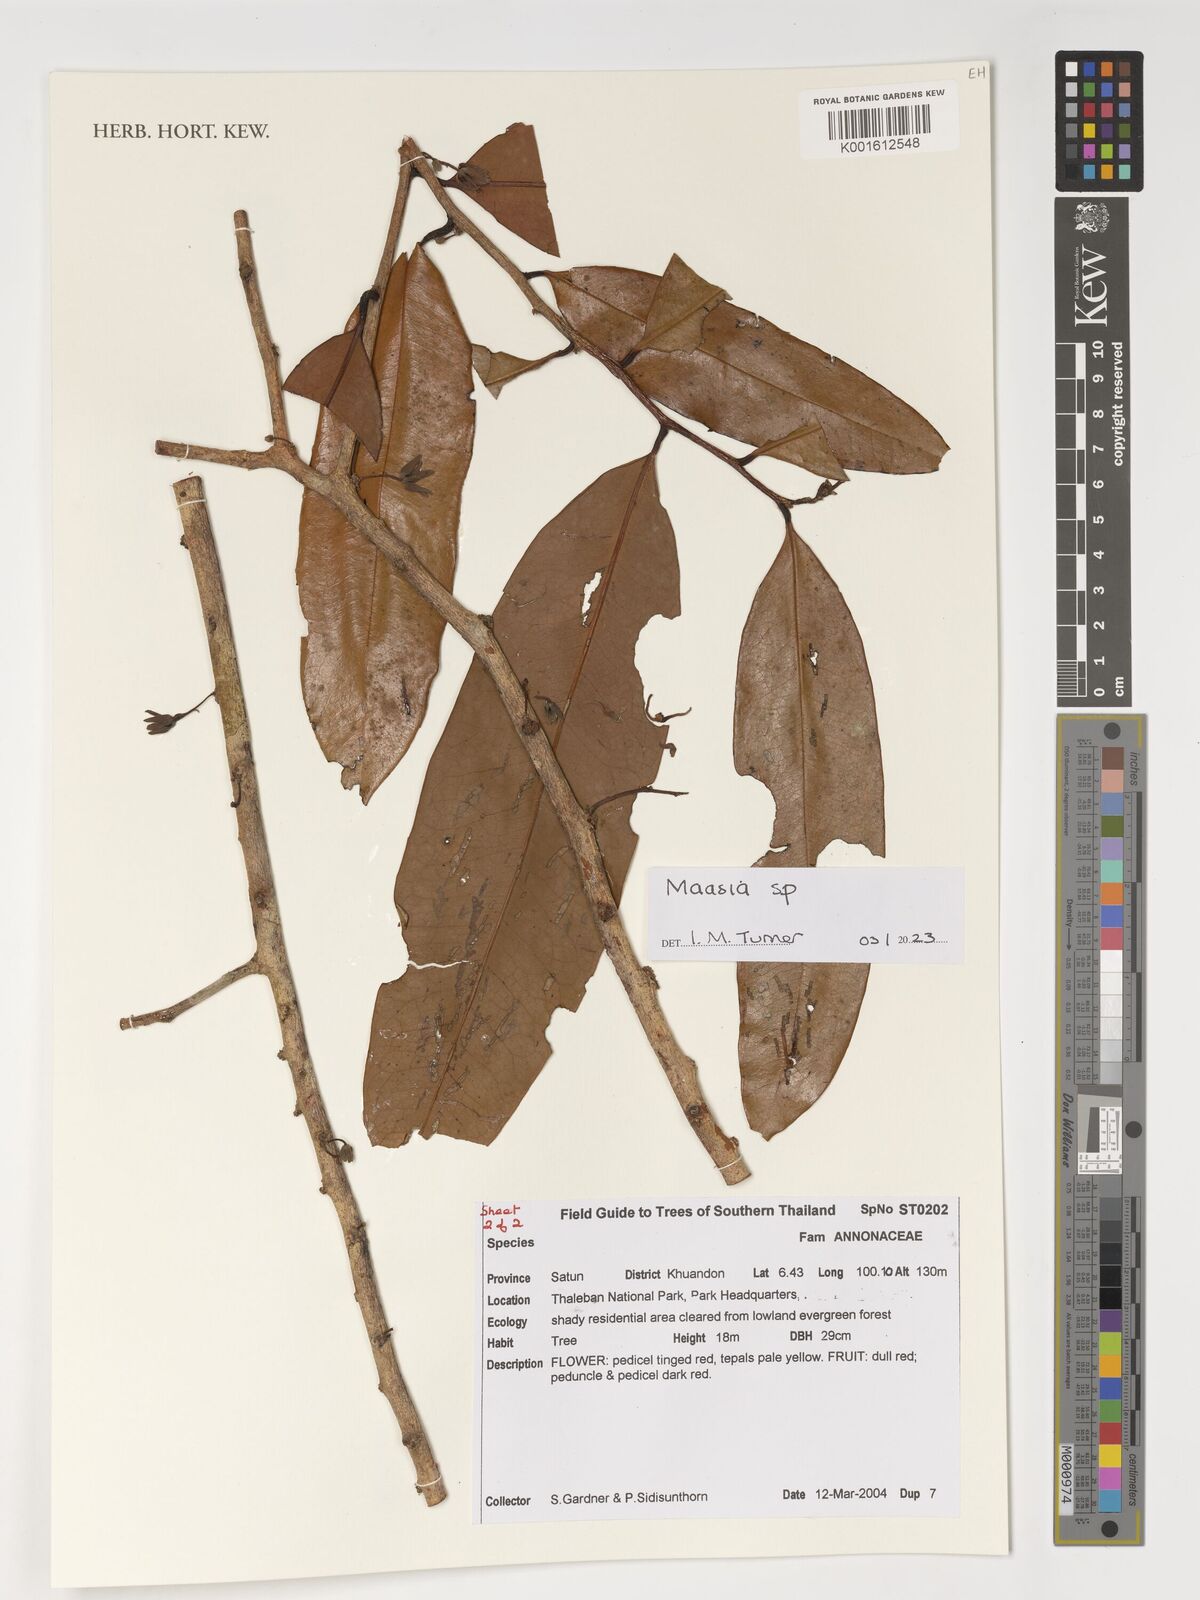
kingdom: Plantae
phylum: Tracheophyta
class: Magnoliopsida
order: Magnoliales
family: Annonaceae
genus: Maasia
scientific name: Maasia
